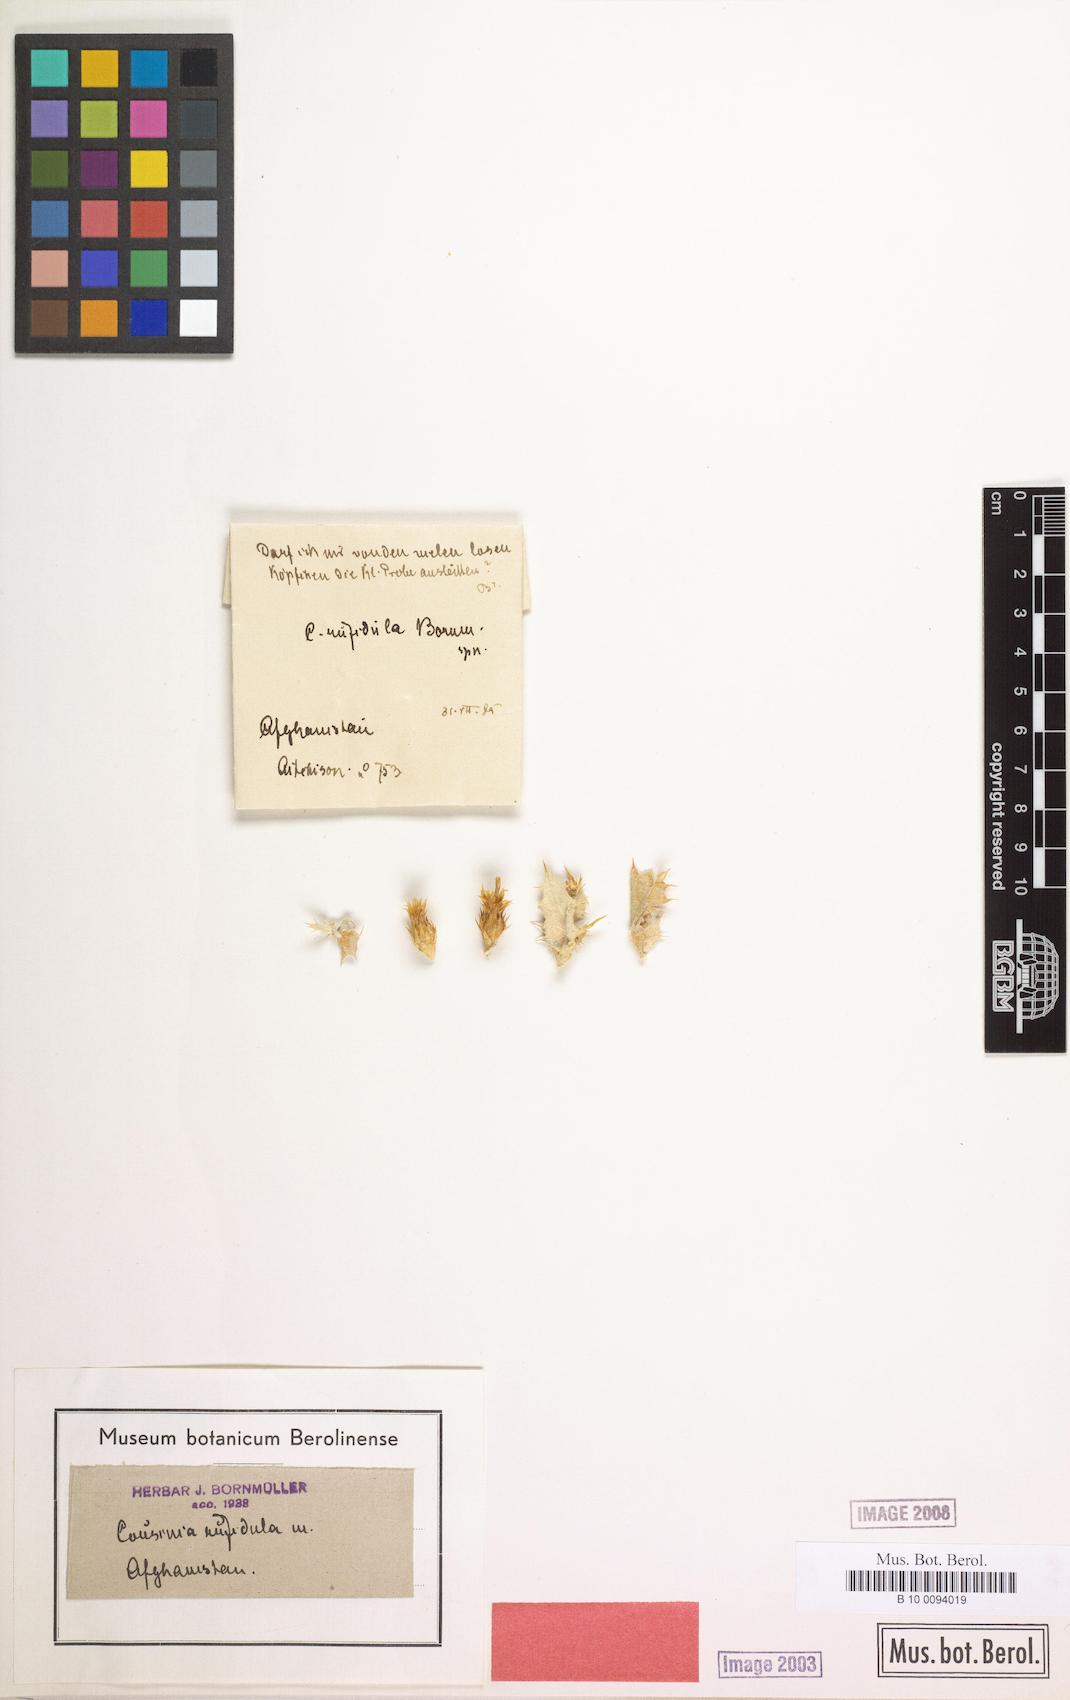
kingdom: Plantae
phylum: Tracheophyta
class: Magnoliopsida
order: Asterales
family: Asteraceae
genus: Cousinia
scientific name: Cousinia rufidula
